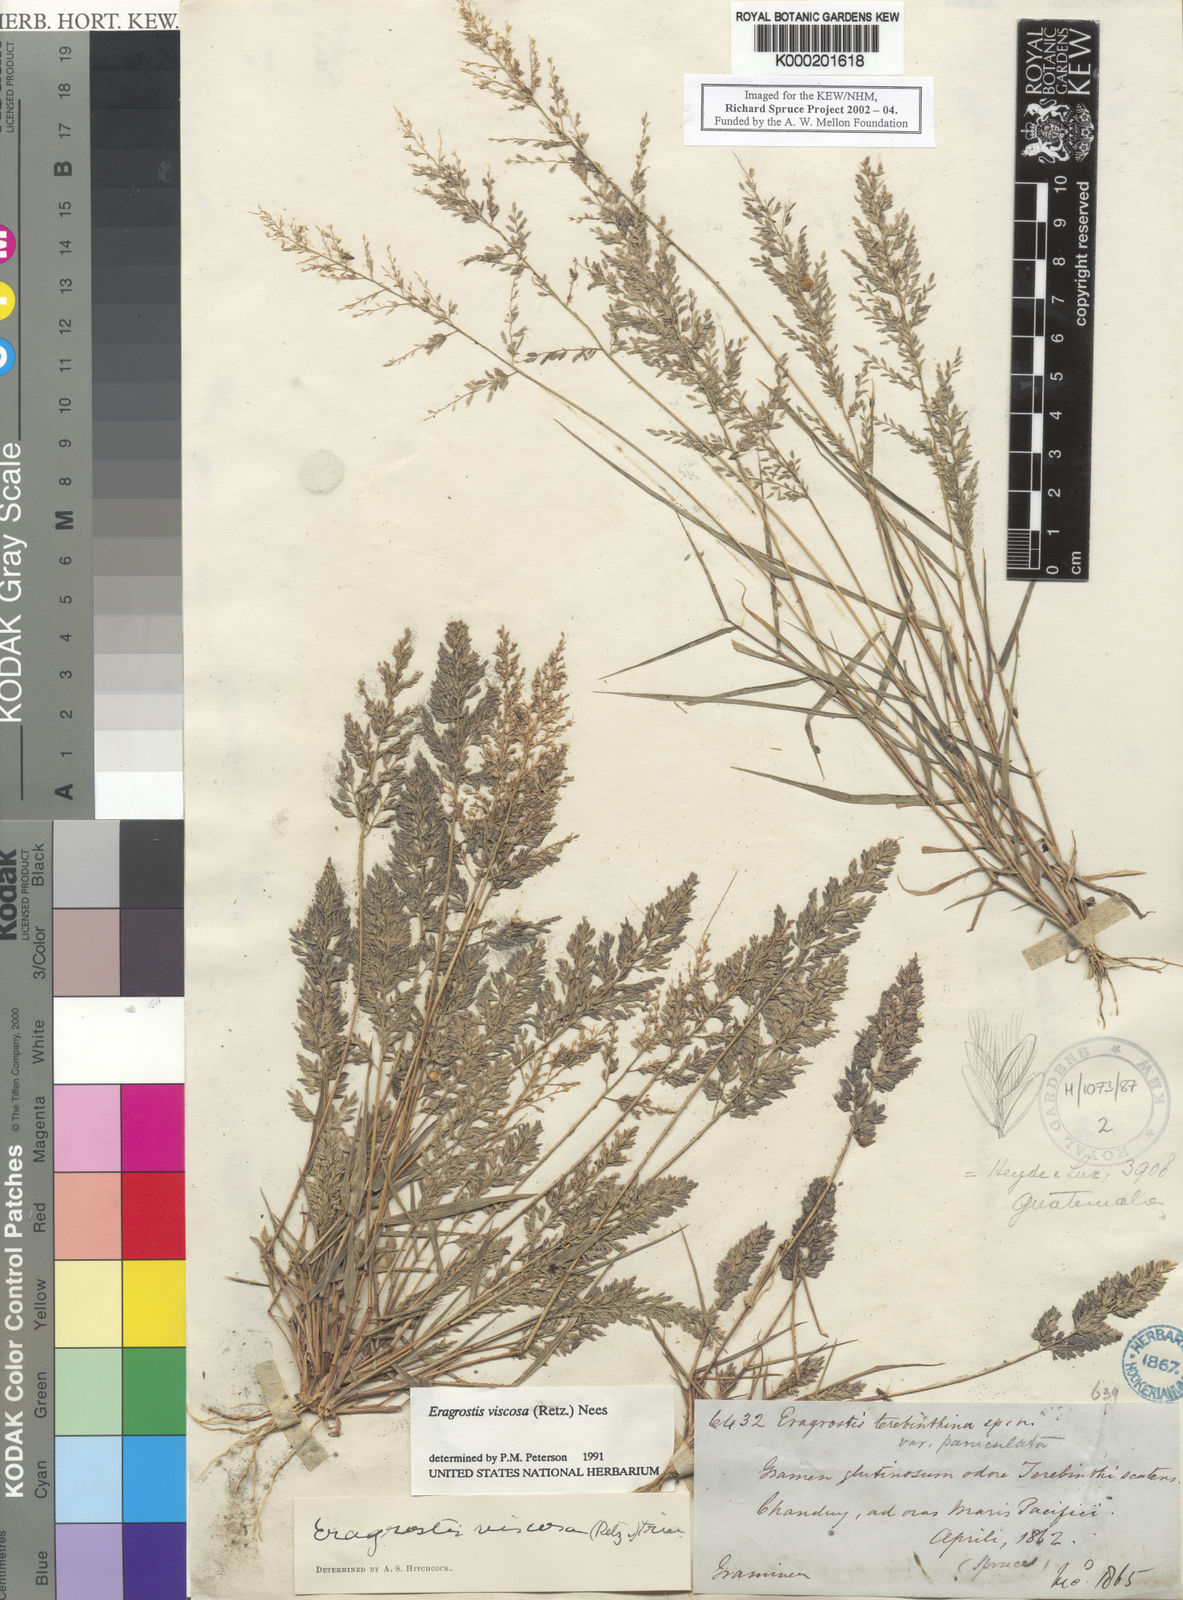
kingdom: Plantae
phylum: Tracheophyta
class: Liliopsida
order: Poales
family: Poaceae
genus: Eragrostis
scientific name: Eragrostis viscosa
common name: Sticky love grass
